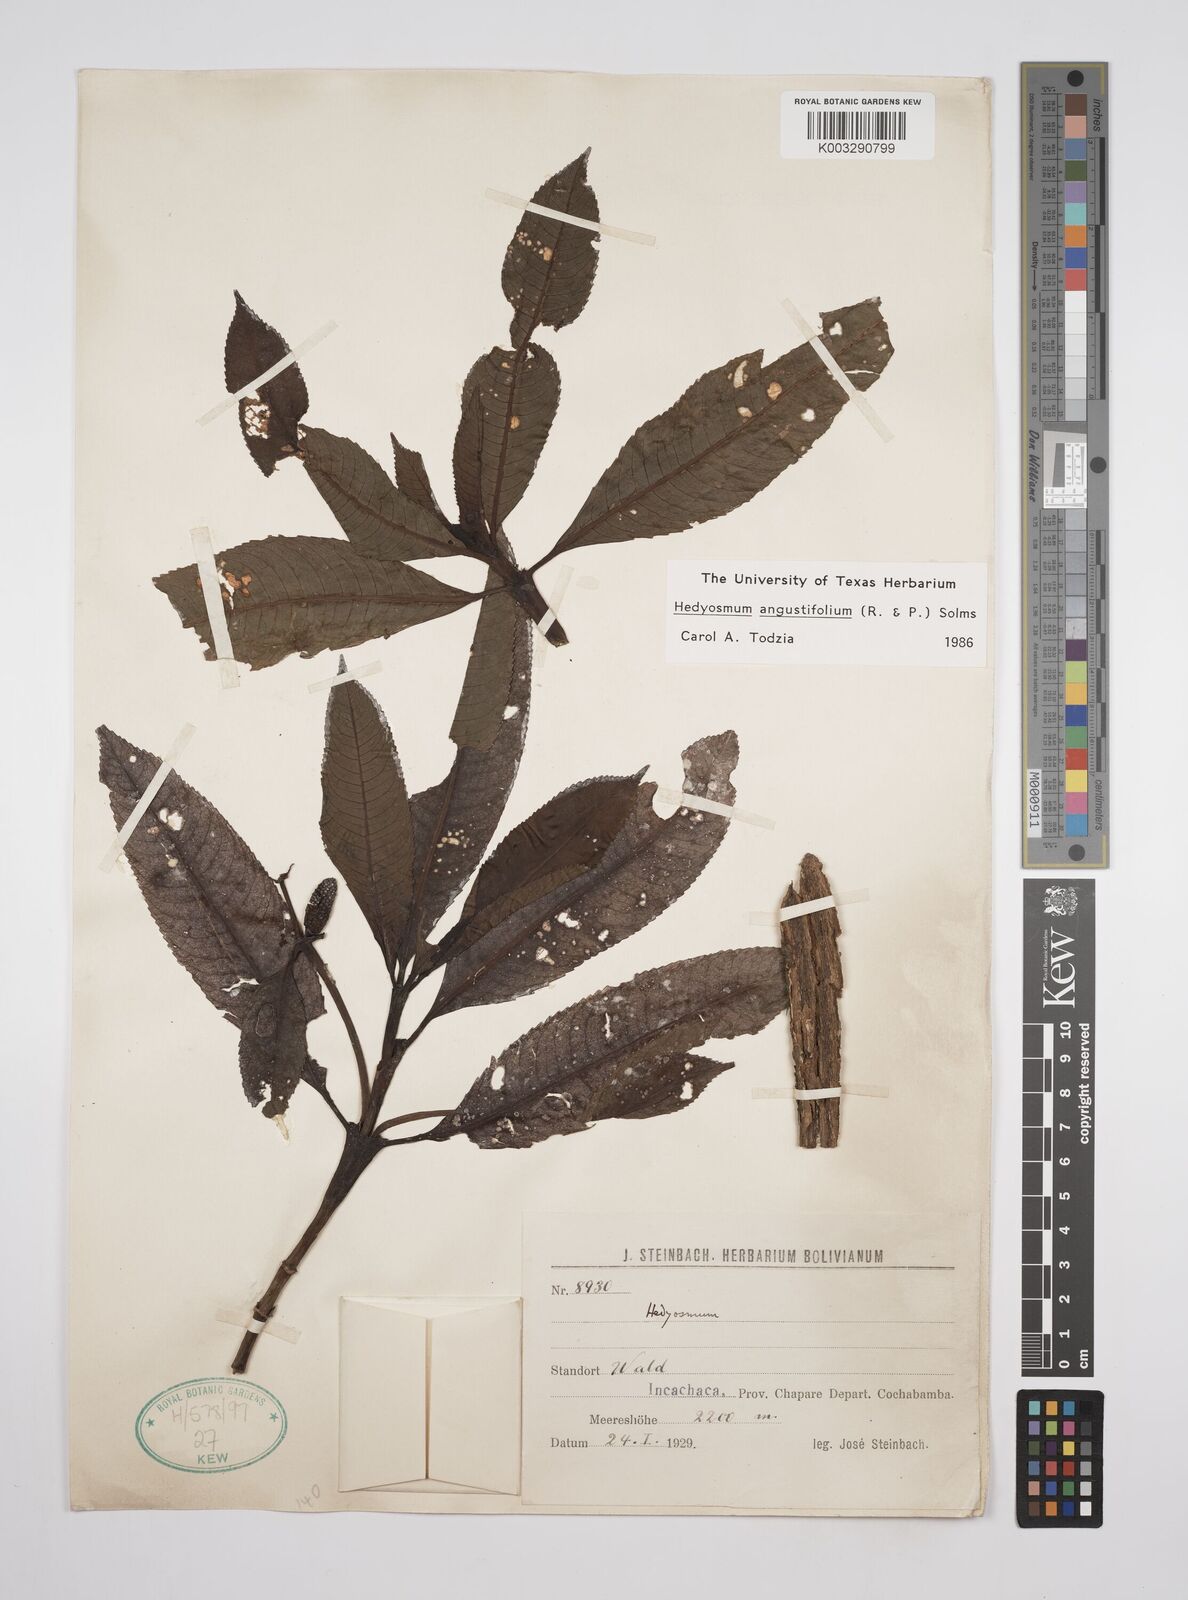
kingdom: Plantae
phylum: Tracheophyta
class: Magnoliopsida
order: Chloranthales
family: Chloranthaceae
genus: Hedyosmum
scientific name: Hedyosmum angustifolium
